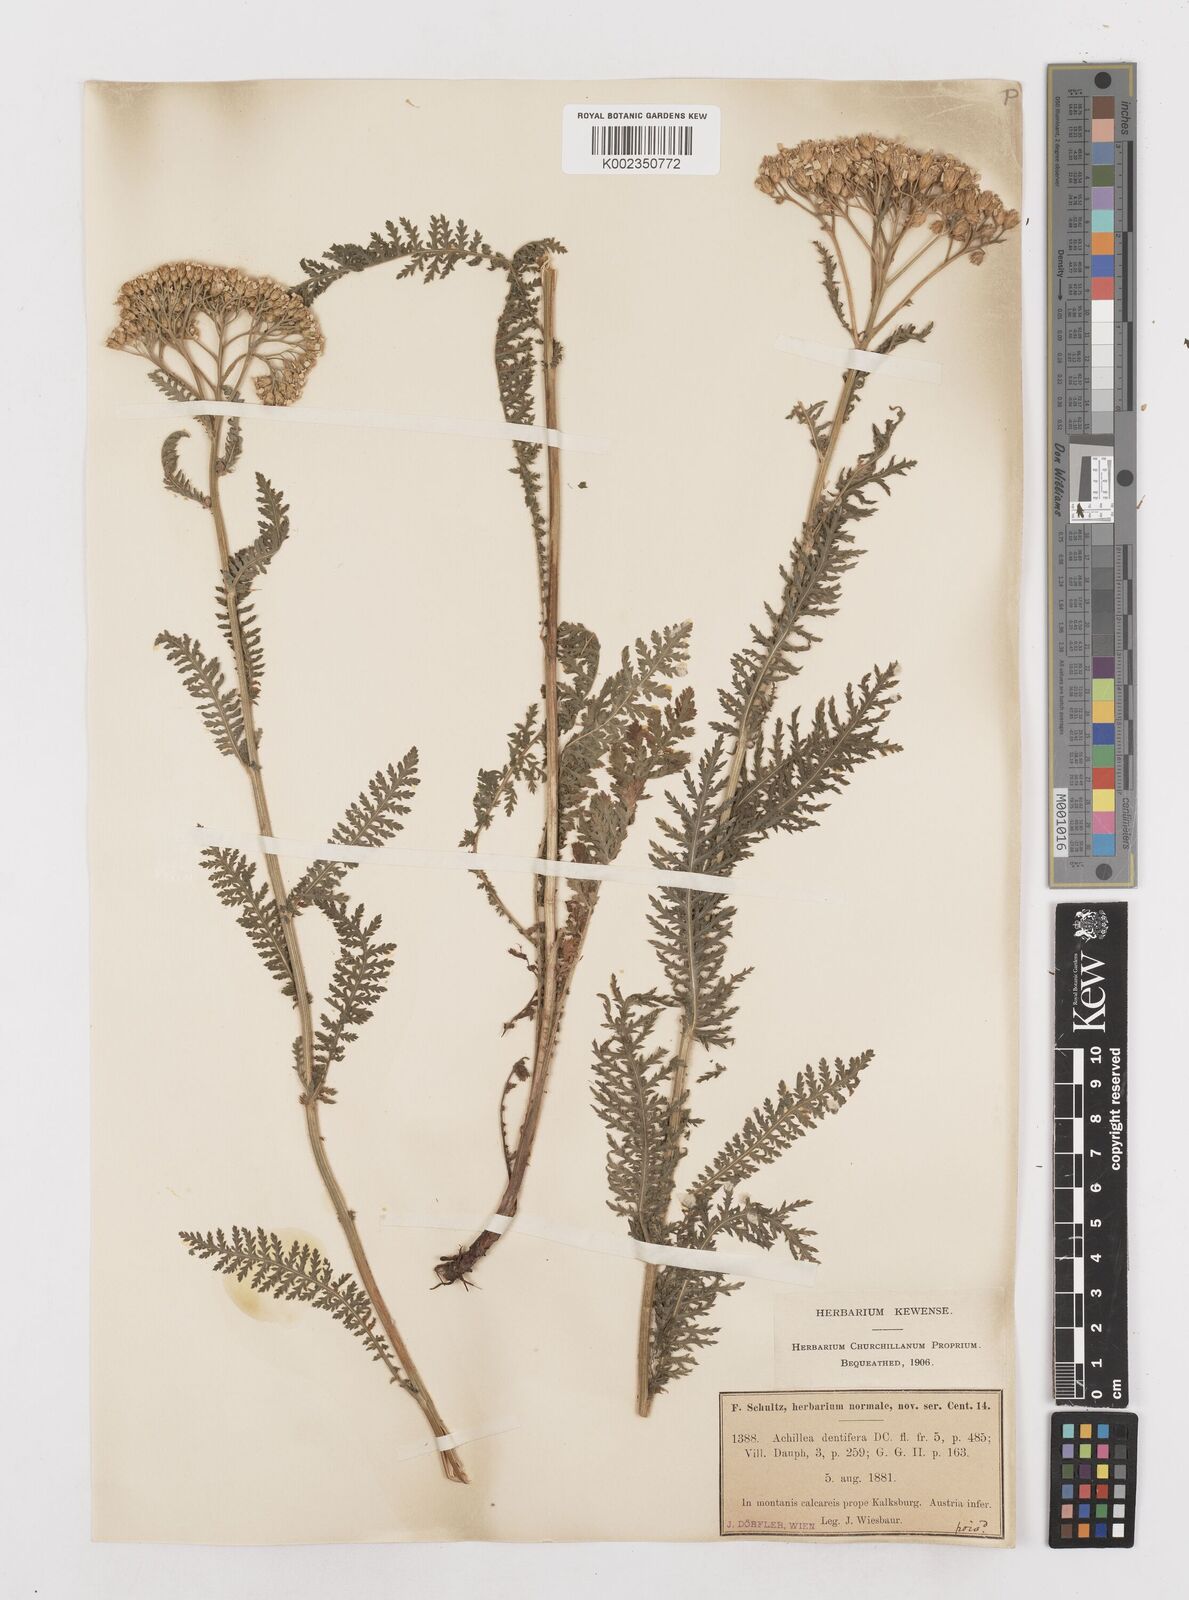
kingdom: Plantae
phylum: Tracheophyta
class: Magnoliopsida
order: Asterales
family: Asteraceae
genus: Achillea
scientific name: Achillea distans
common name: Tall yarrow
